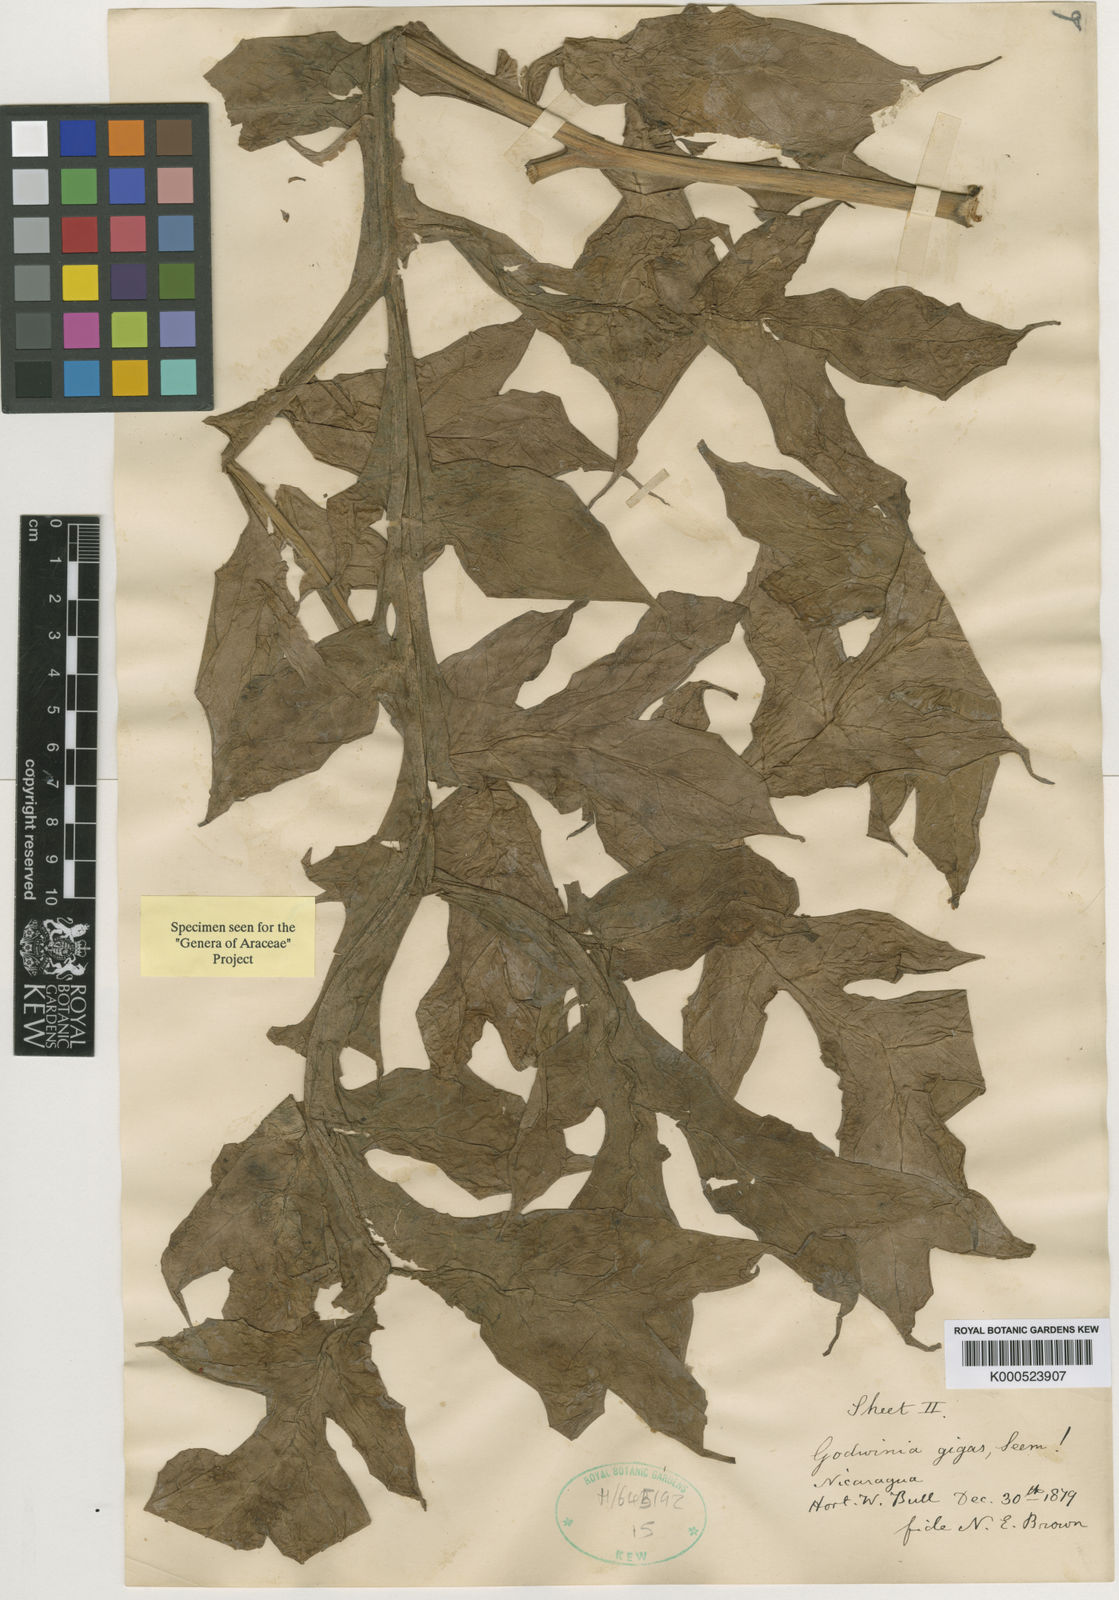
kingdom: Plantae
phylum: Tracheophyta
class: Liliopsida
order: Alismatales
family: Araceae
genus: Dracontium
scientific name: Dracontium gigas
